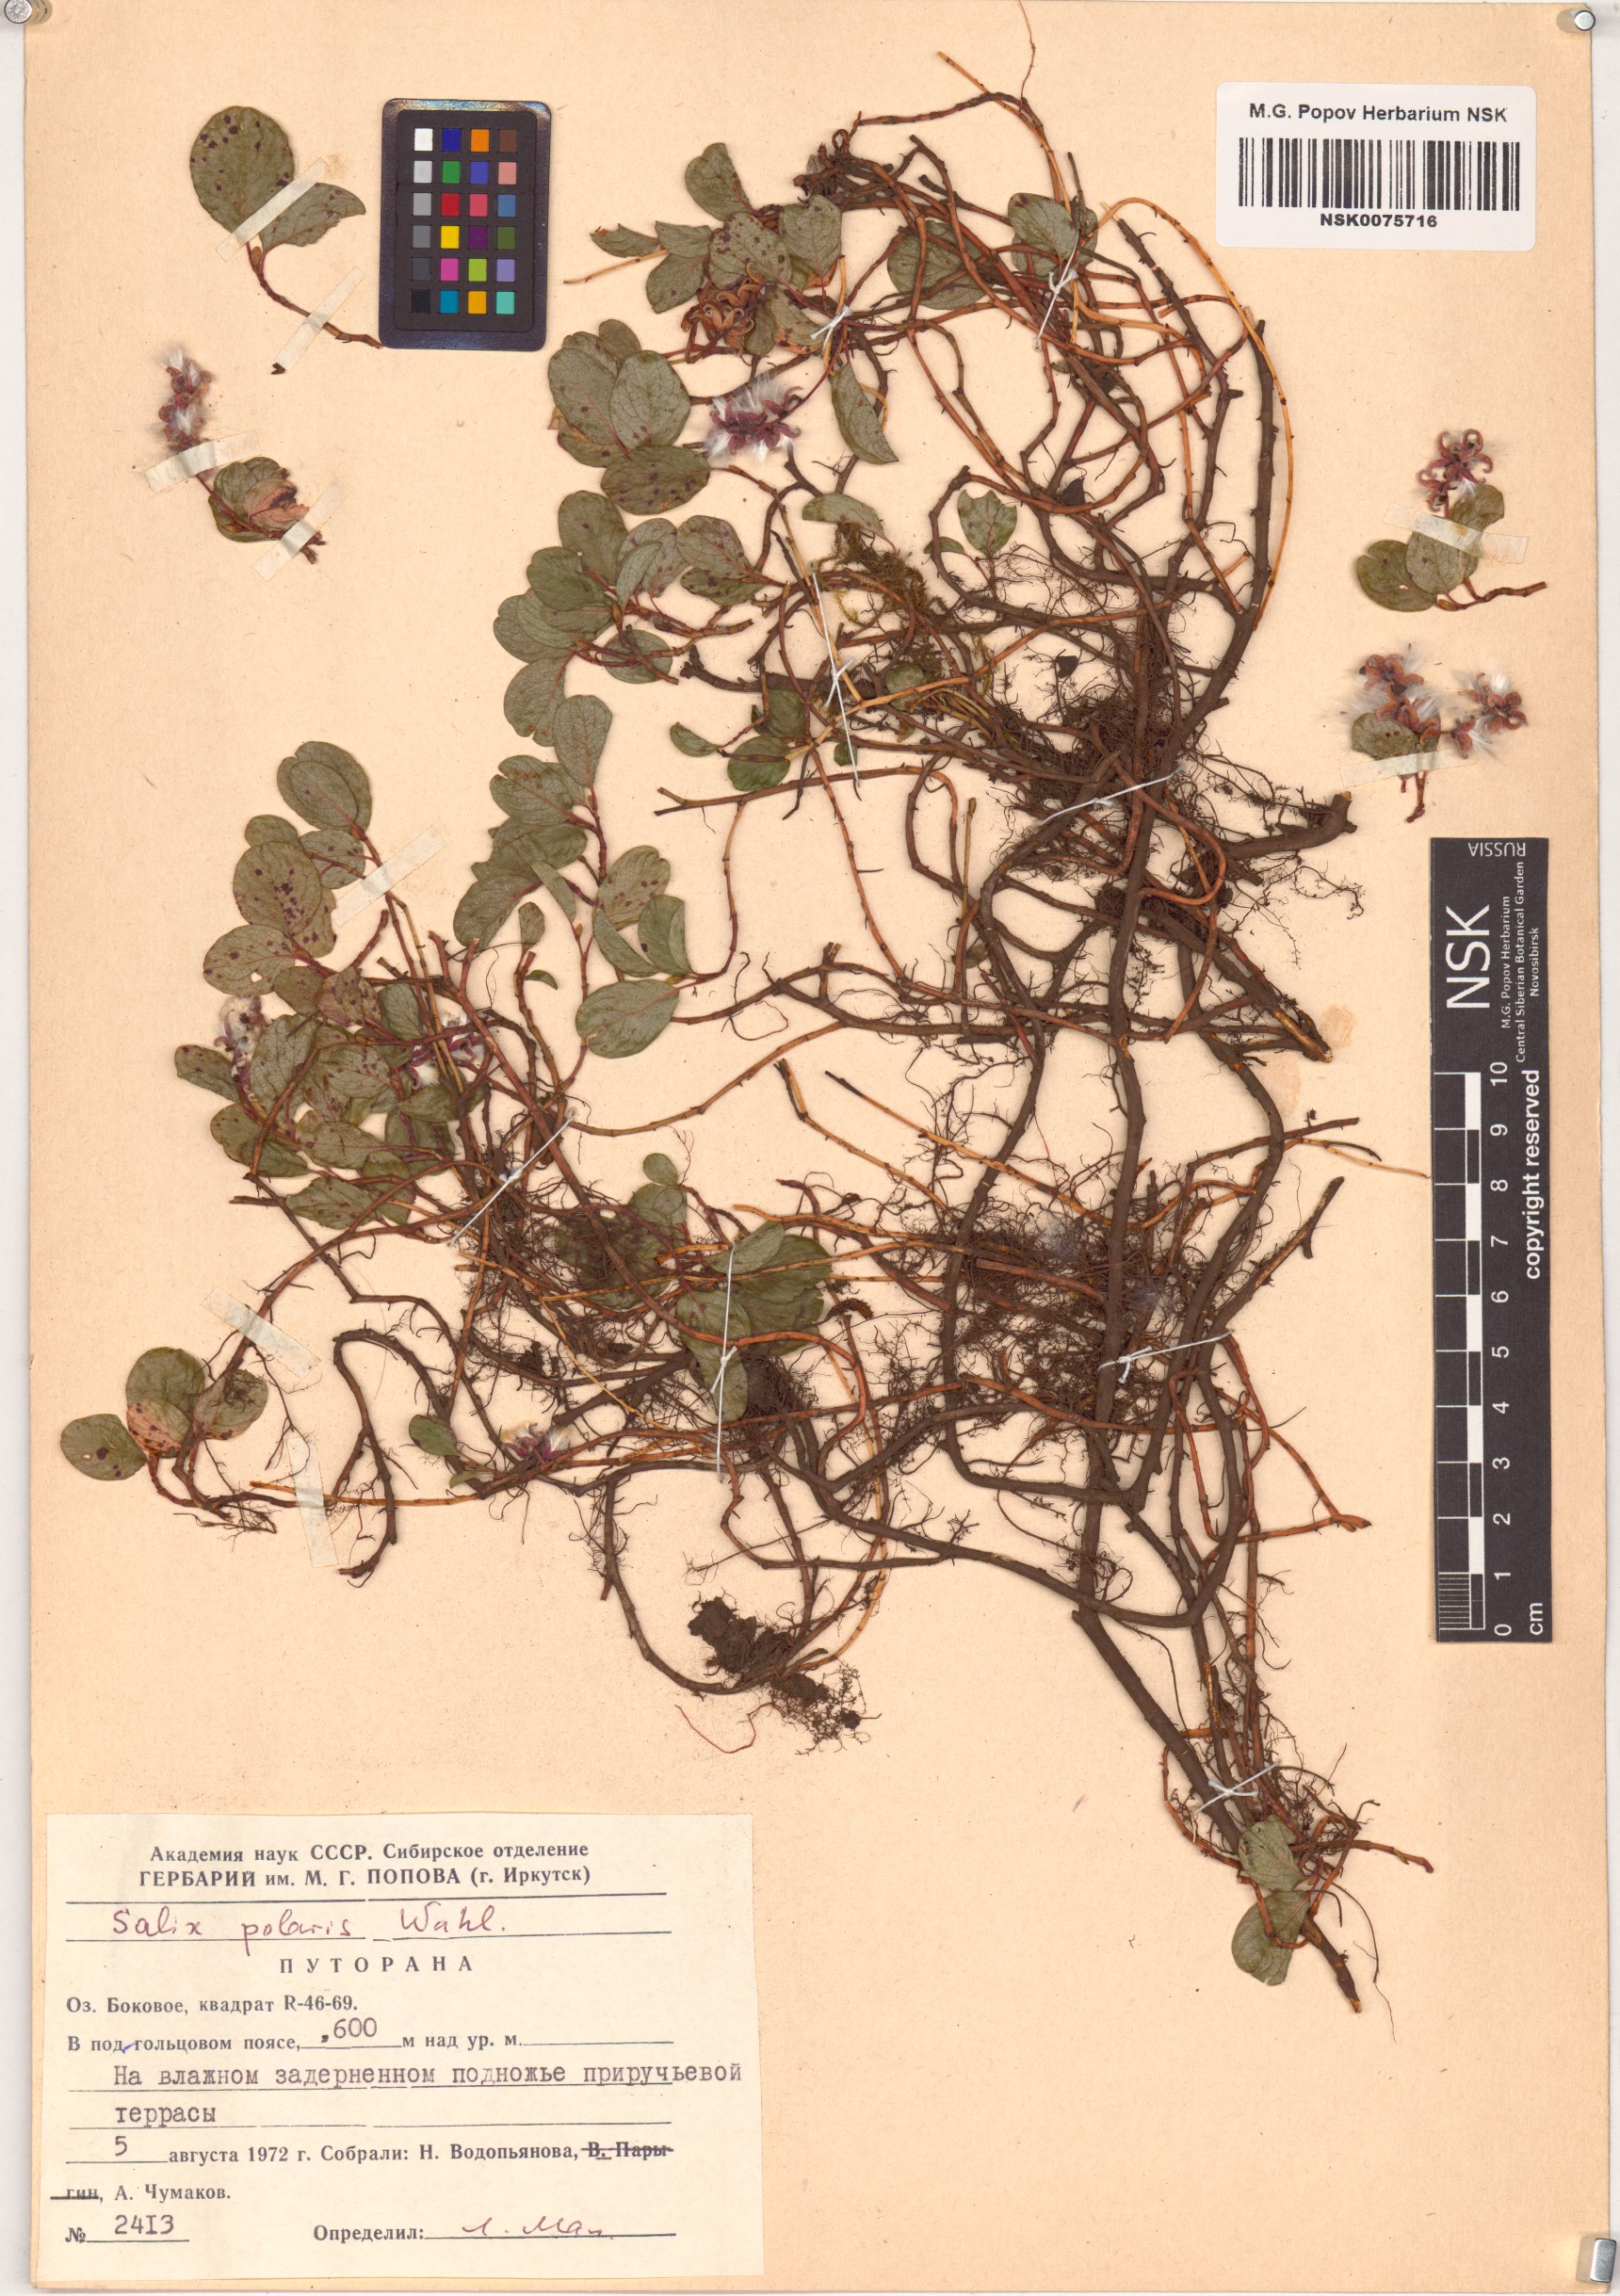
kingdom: Plantae
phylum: Tracheophyta
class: Magnoliopsida
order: Malpighiales
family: Salicaceae
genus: Salix
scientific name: Salix polaris
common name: Polar willow
